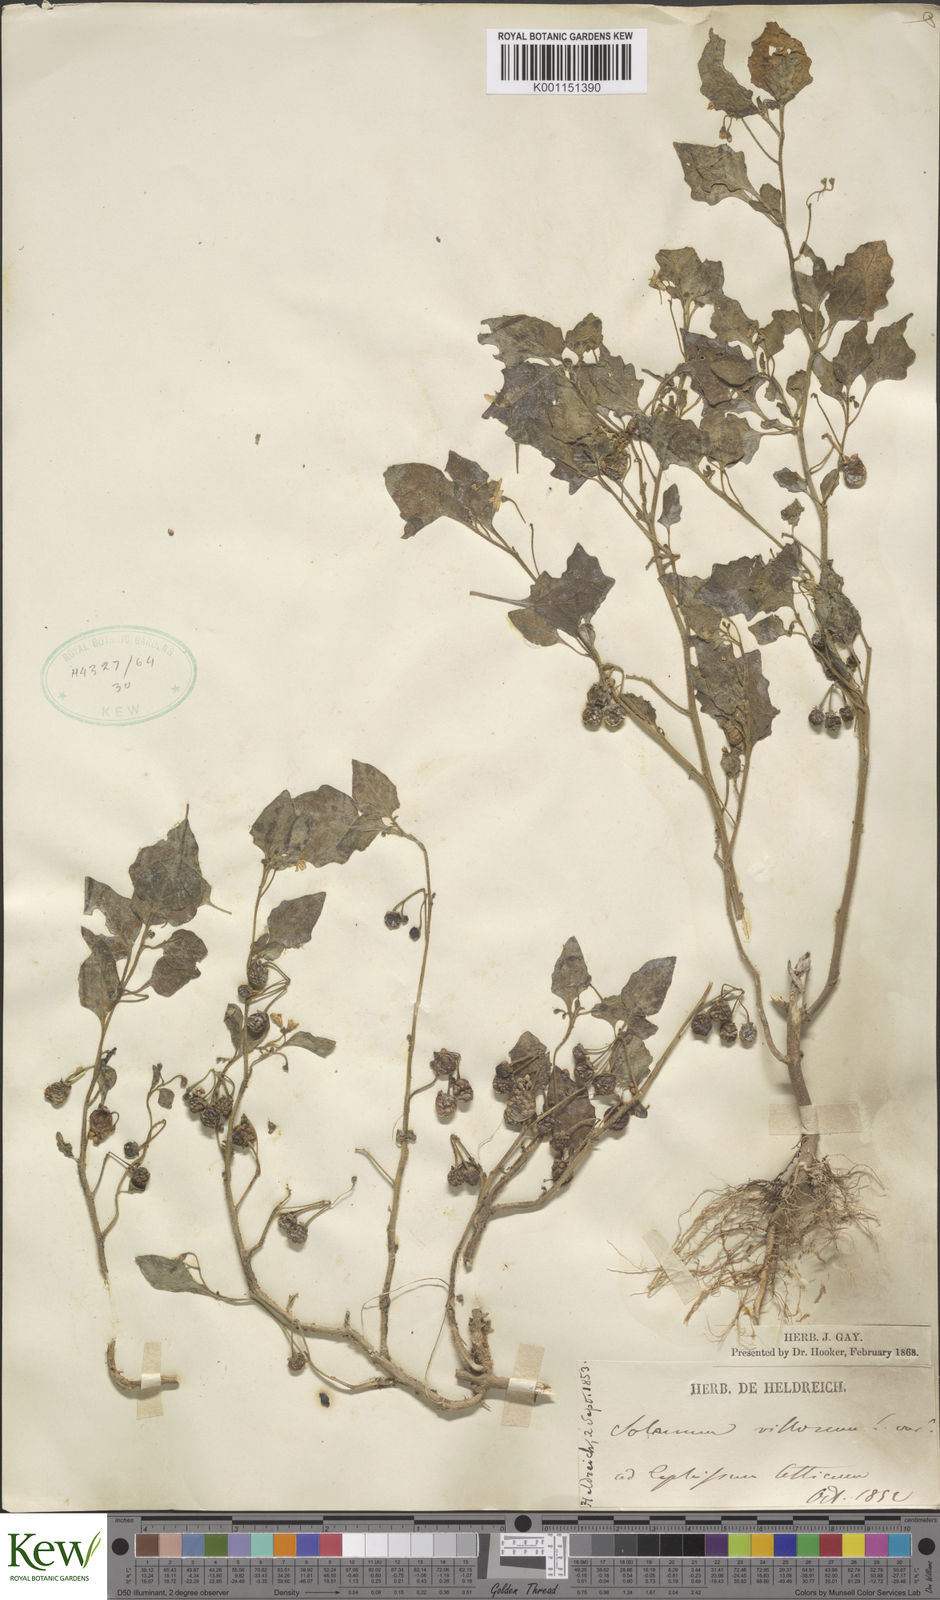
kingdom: Plantae
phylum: Tracheophyta
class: Magnoliopsida
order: Solanales
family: Solanaceae
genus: Solanum
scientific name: Solanum villosum
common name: Red nightshade
